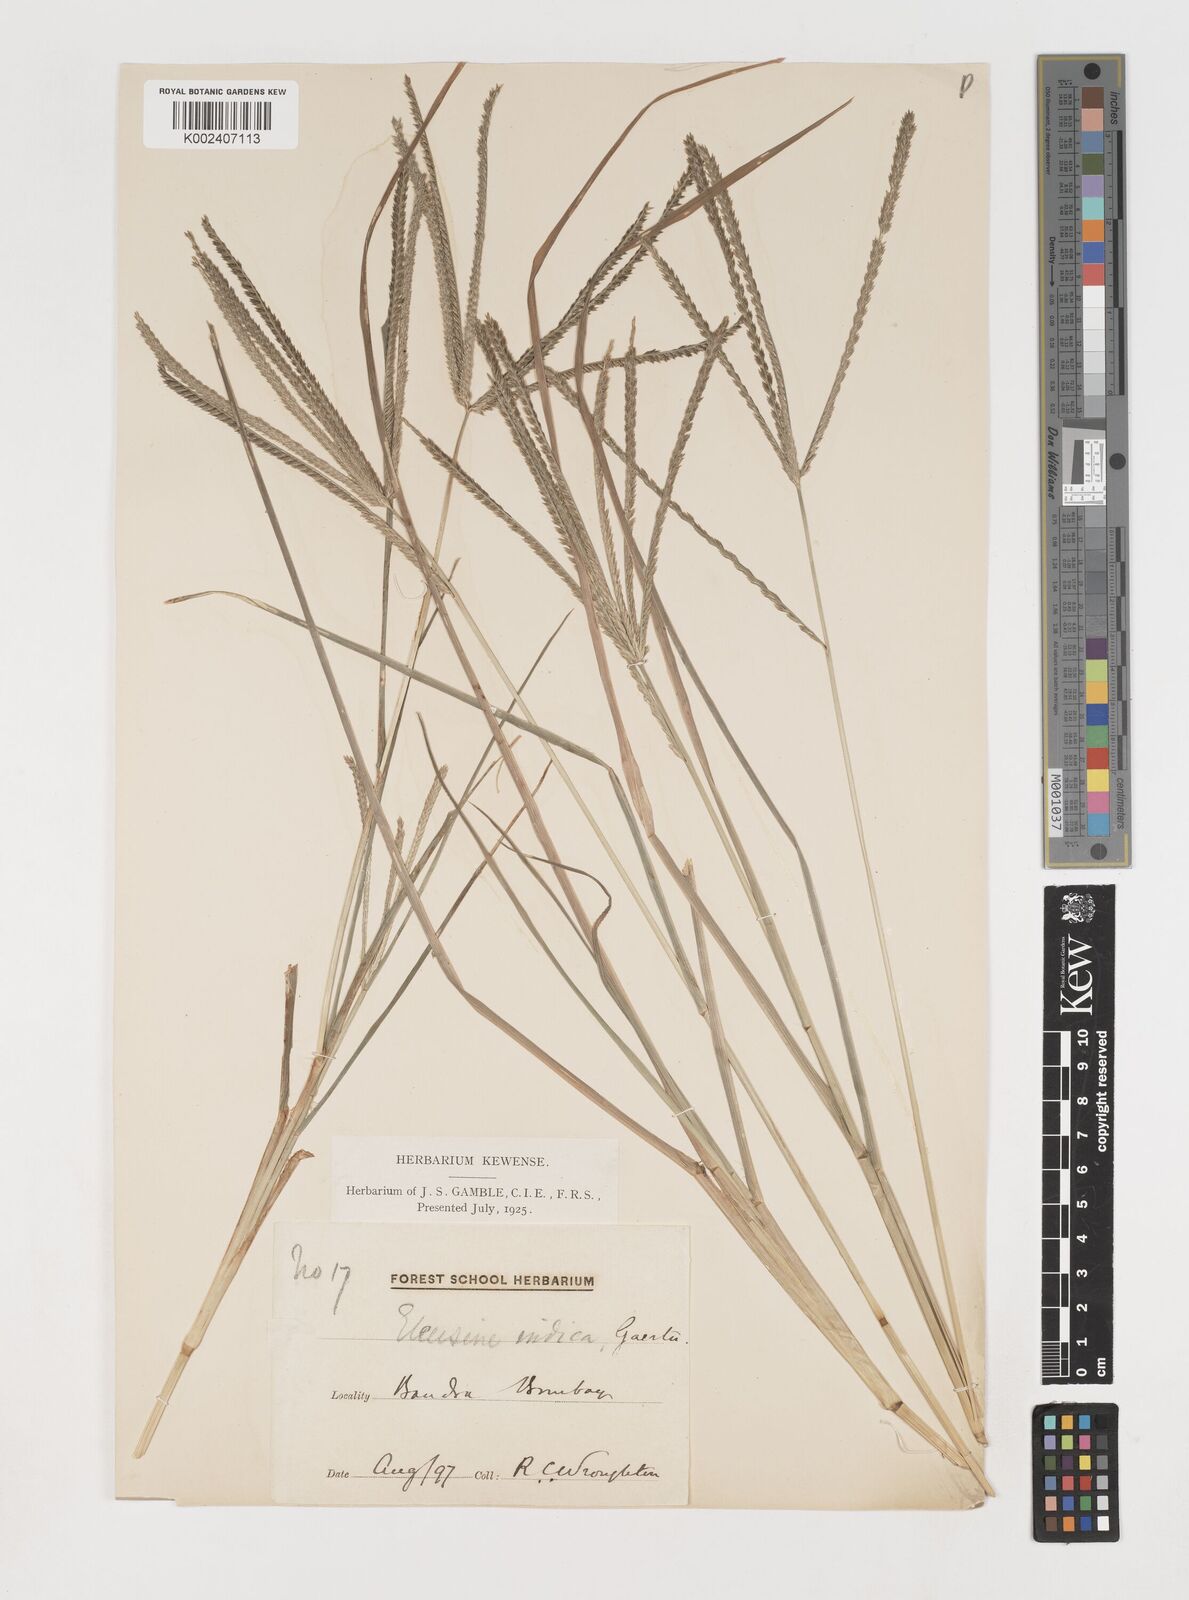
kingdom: Plantae
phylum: Tracheophyta
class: Liliopsida
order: Poales
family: Poaceae
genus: Eleusine
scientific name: Eleusine indica
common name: Yard-grass
